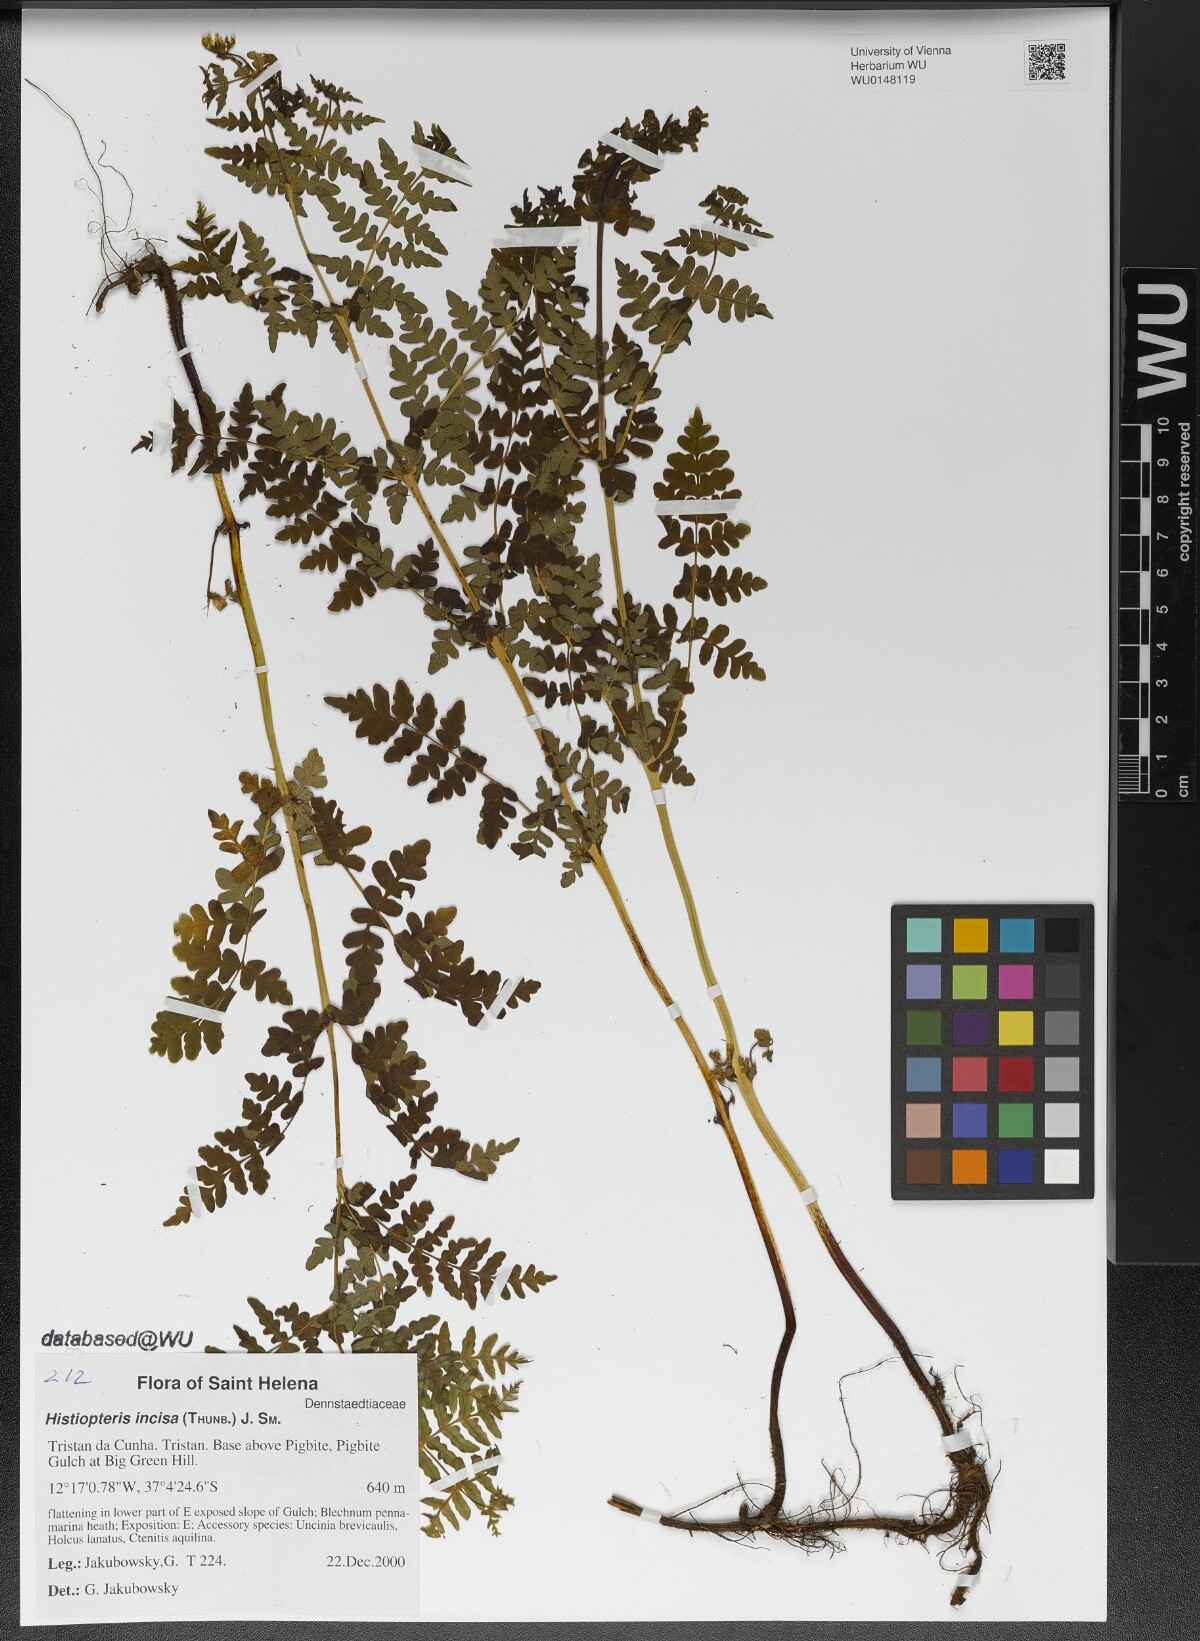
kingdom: Plantae
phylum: Tracheophyta
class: Polypodiopsida
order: Polypodiales
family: Dennstaedtiaceae
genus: Histiopteris
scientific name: Histiopteris incisa
